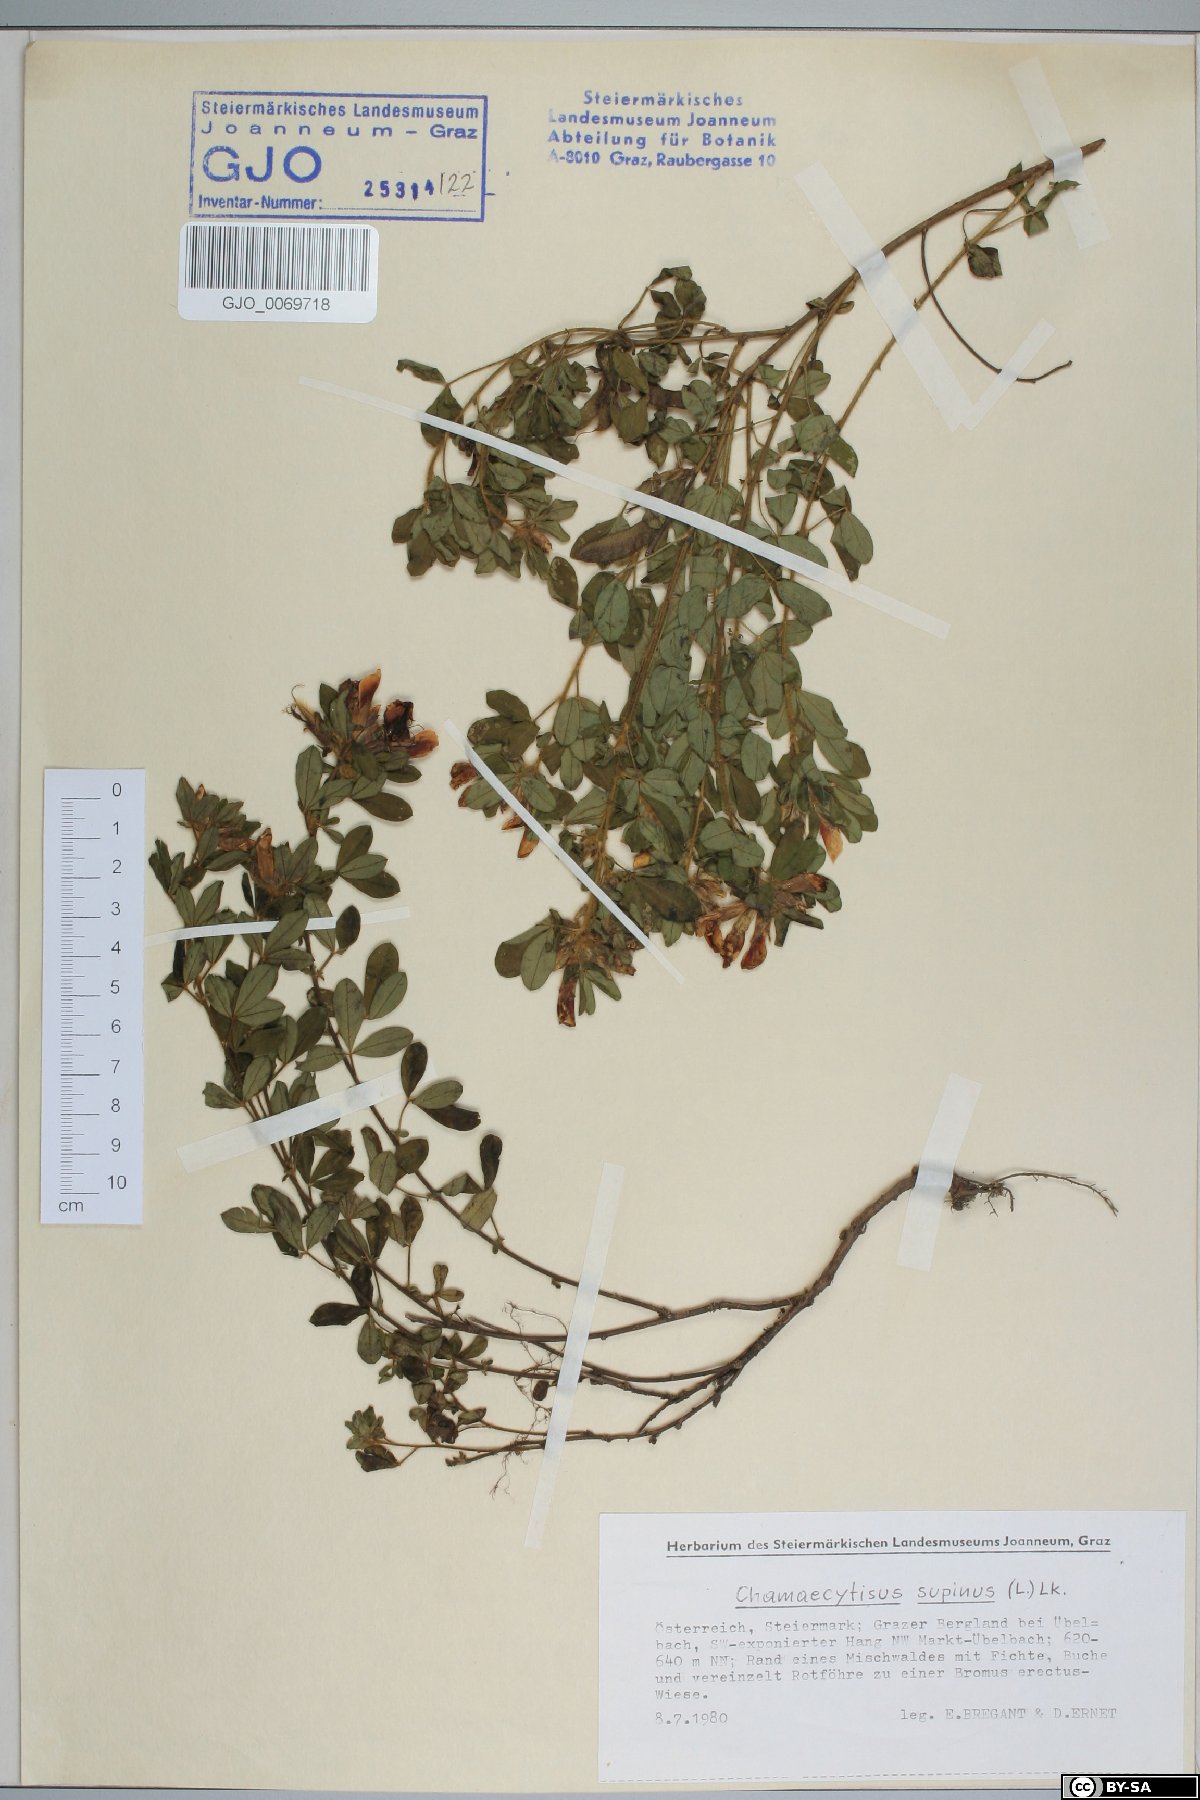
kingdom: Plantae
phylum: Tracheophyta
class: Magnoliopsida
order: Fabales
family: Fabaceae
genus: Chamaecytisus
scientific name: Chamaecytisus supinus
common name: Clustered broom
